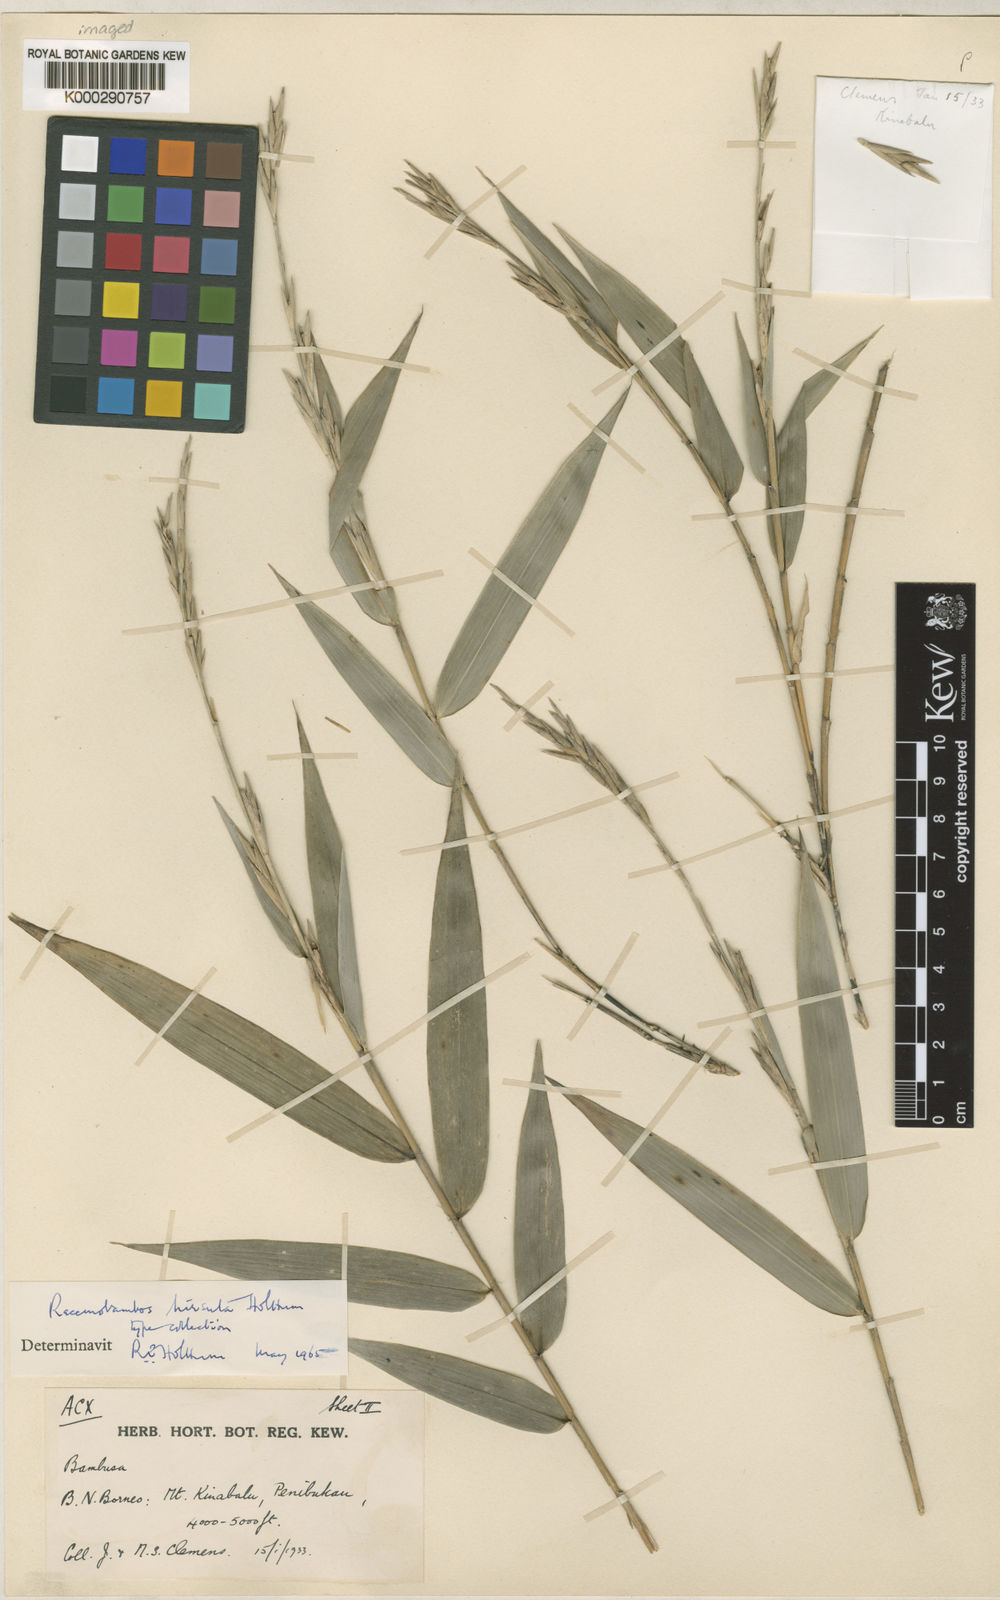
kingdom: Plantae
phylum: Tracheophyta
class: Liliopsida
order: Poales
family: Poaceae
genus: Racemobambos
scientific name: Racemobambos hirsuta
